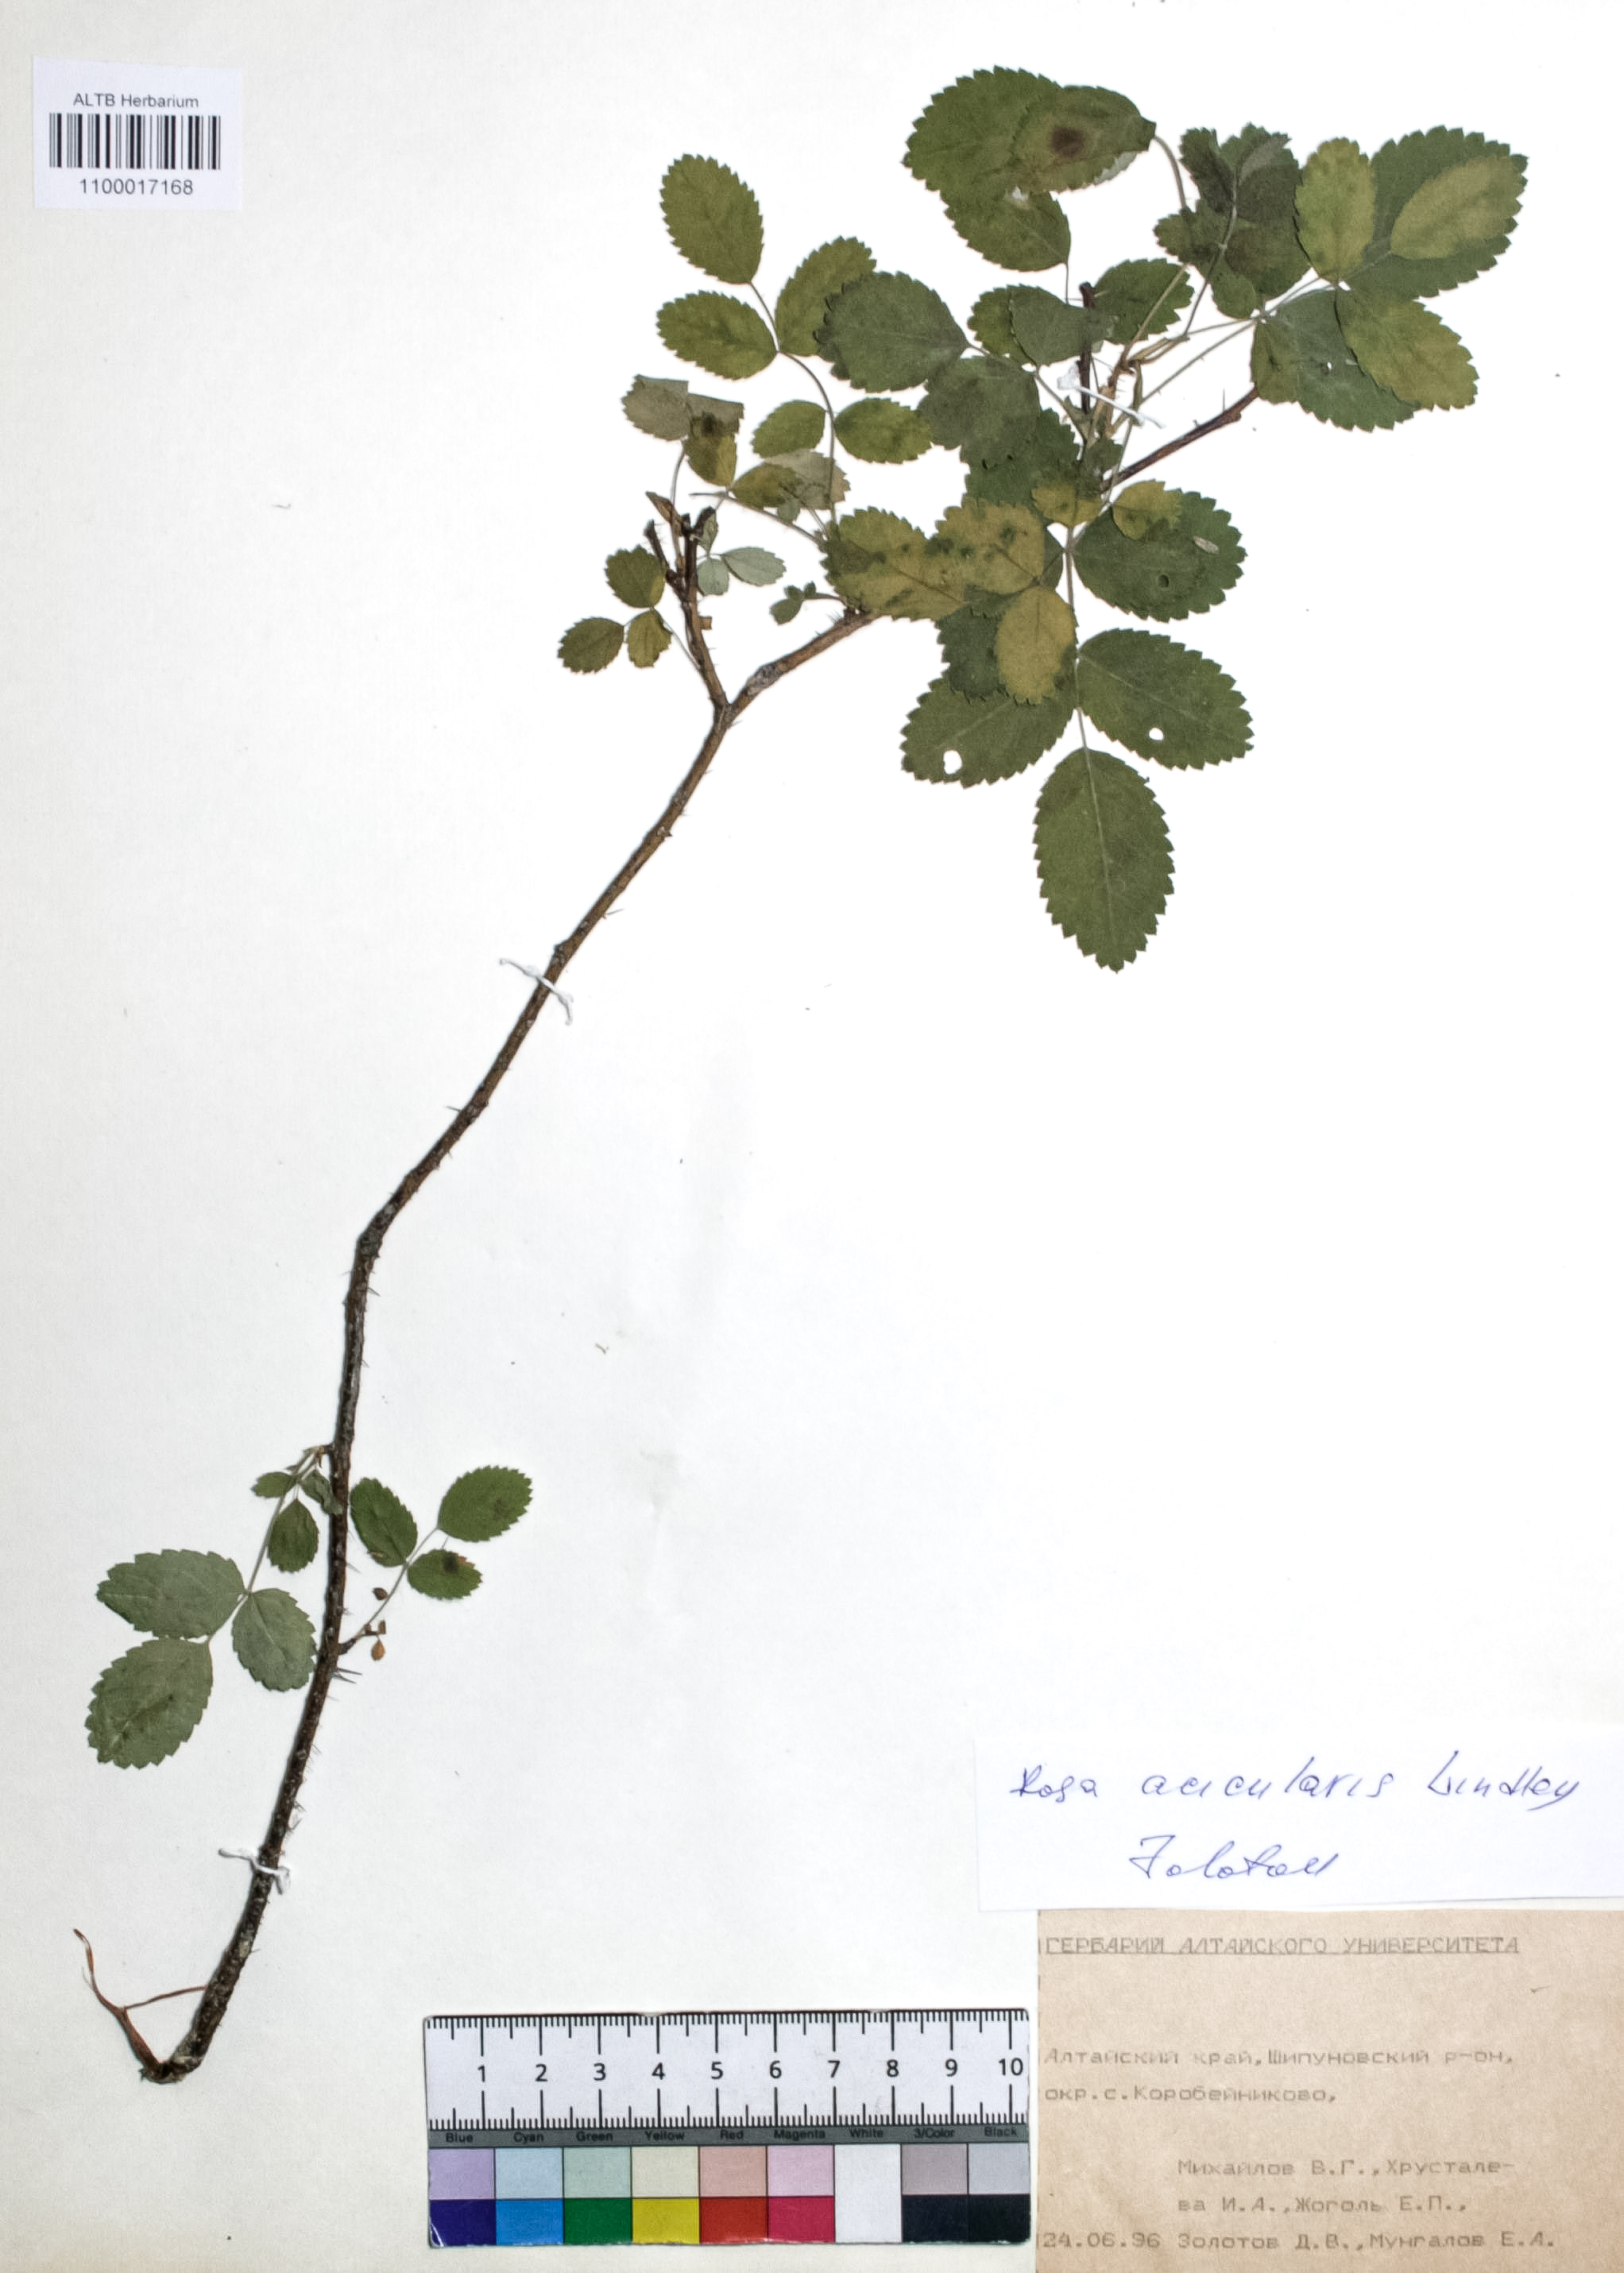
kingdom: Plantae
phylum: Tracheophyta
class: Magnoliopsida
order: Rosales
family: Rosaceae
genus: Rosa
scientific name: Rosa acicularis
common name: Prickly rose
